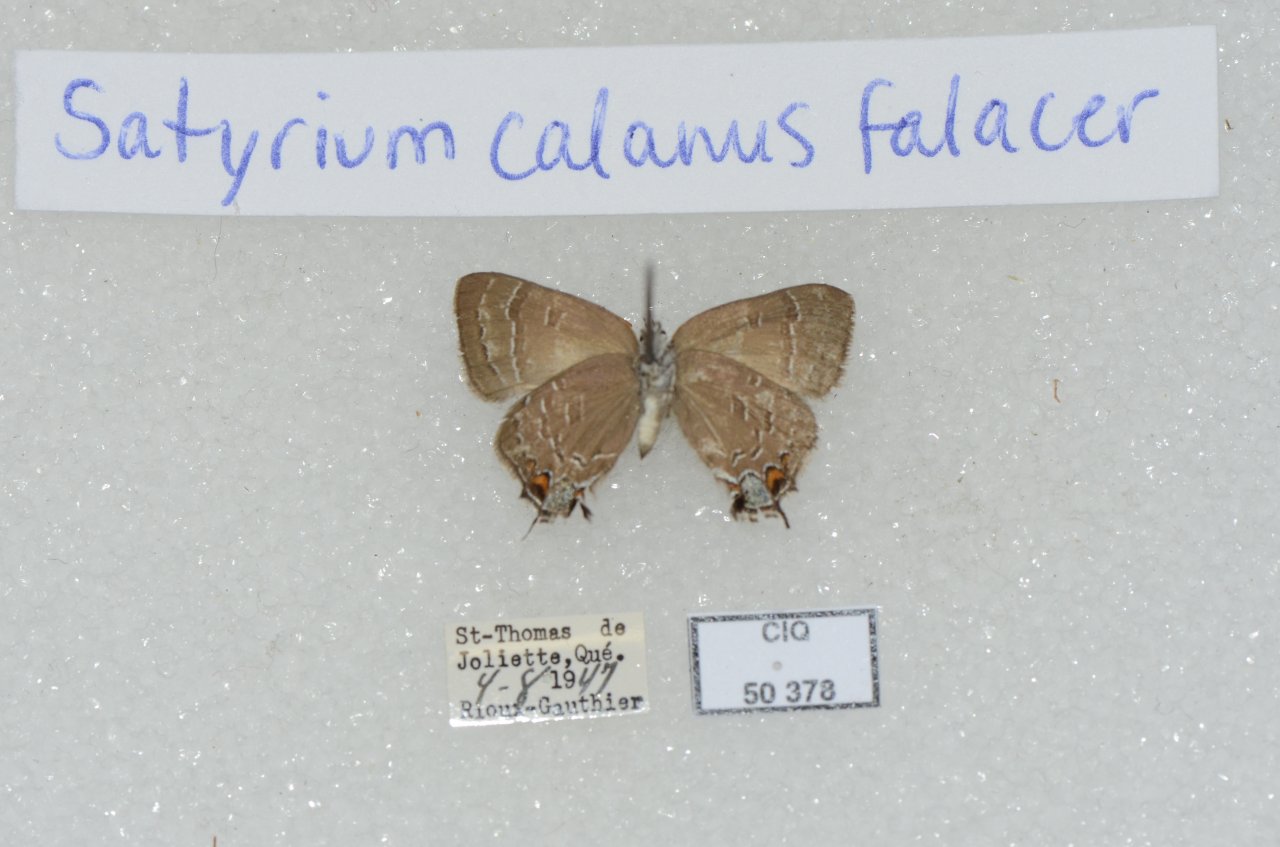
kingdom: Animalia
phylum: Arthropoda
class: Insecta
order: Lepidoptera
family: Lycaenidae
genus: Satyrium
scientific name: Satyrium calanus
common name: Banded Hairstreak
